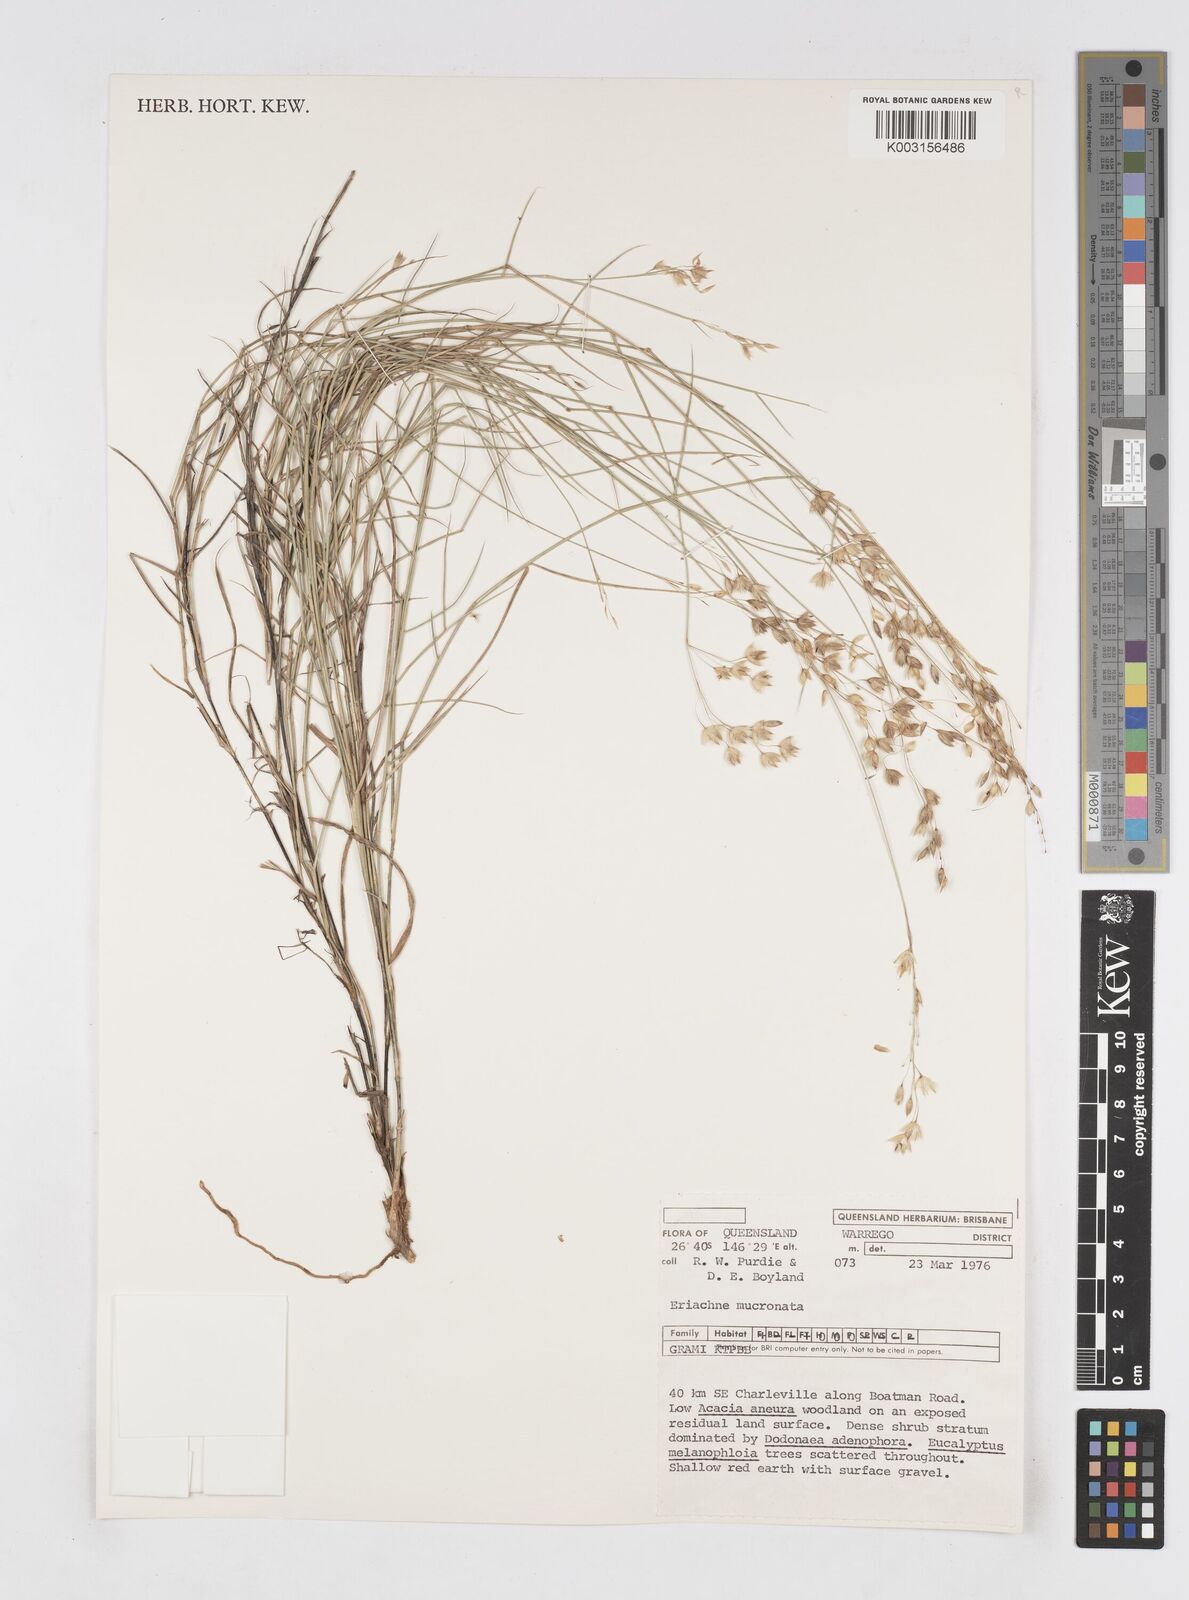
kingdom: Plantae
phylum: Tracheophyta
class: Liliopsida
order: Poales
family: Poaceae
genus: Eriachne
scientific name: Eriachne mucronata
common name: Mountain wanderrie grass
